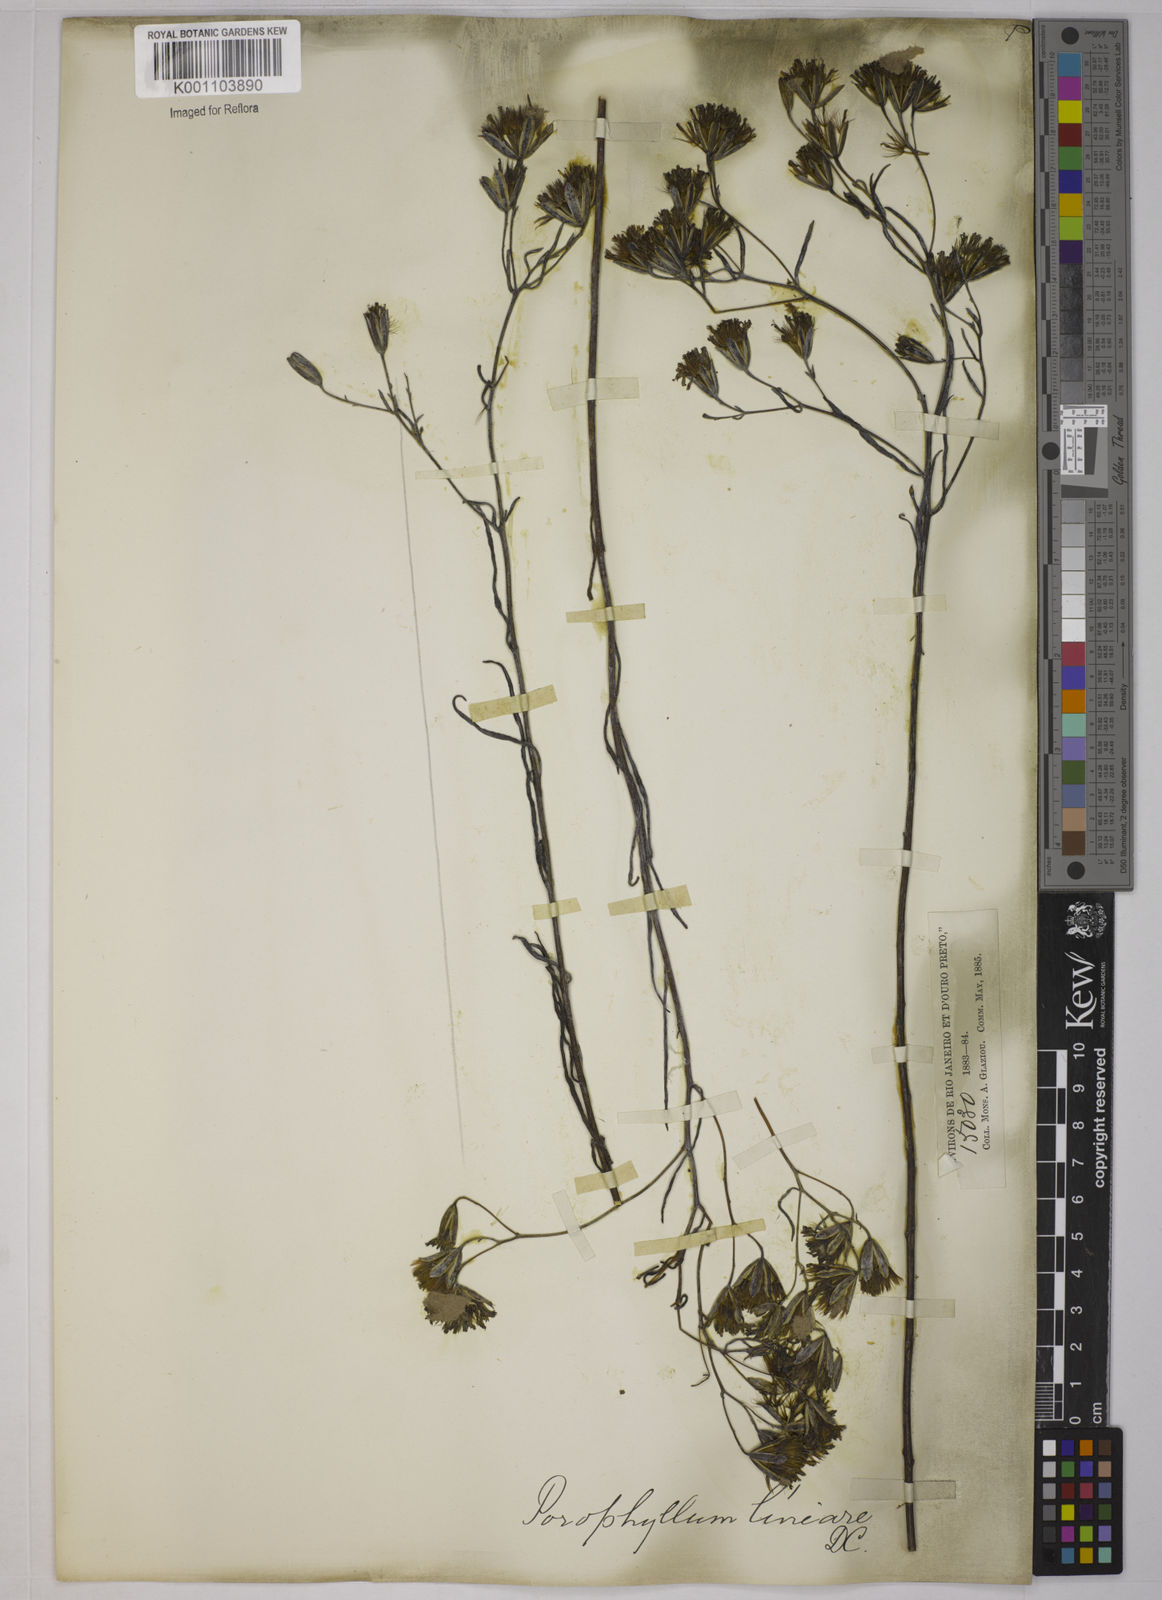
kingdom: Plantae
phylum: Tracheophyta
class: Magnoliopsida
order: Asterales
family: Asteraceae
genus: Porophyllum
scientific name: Porophyllum obscurum
